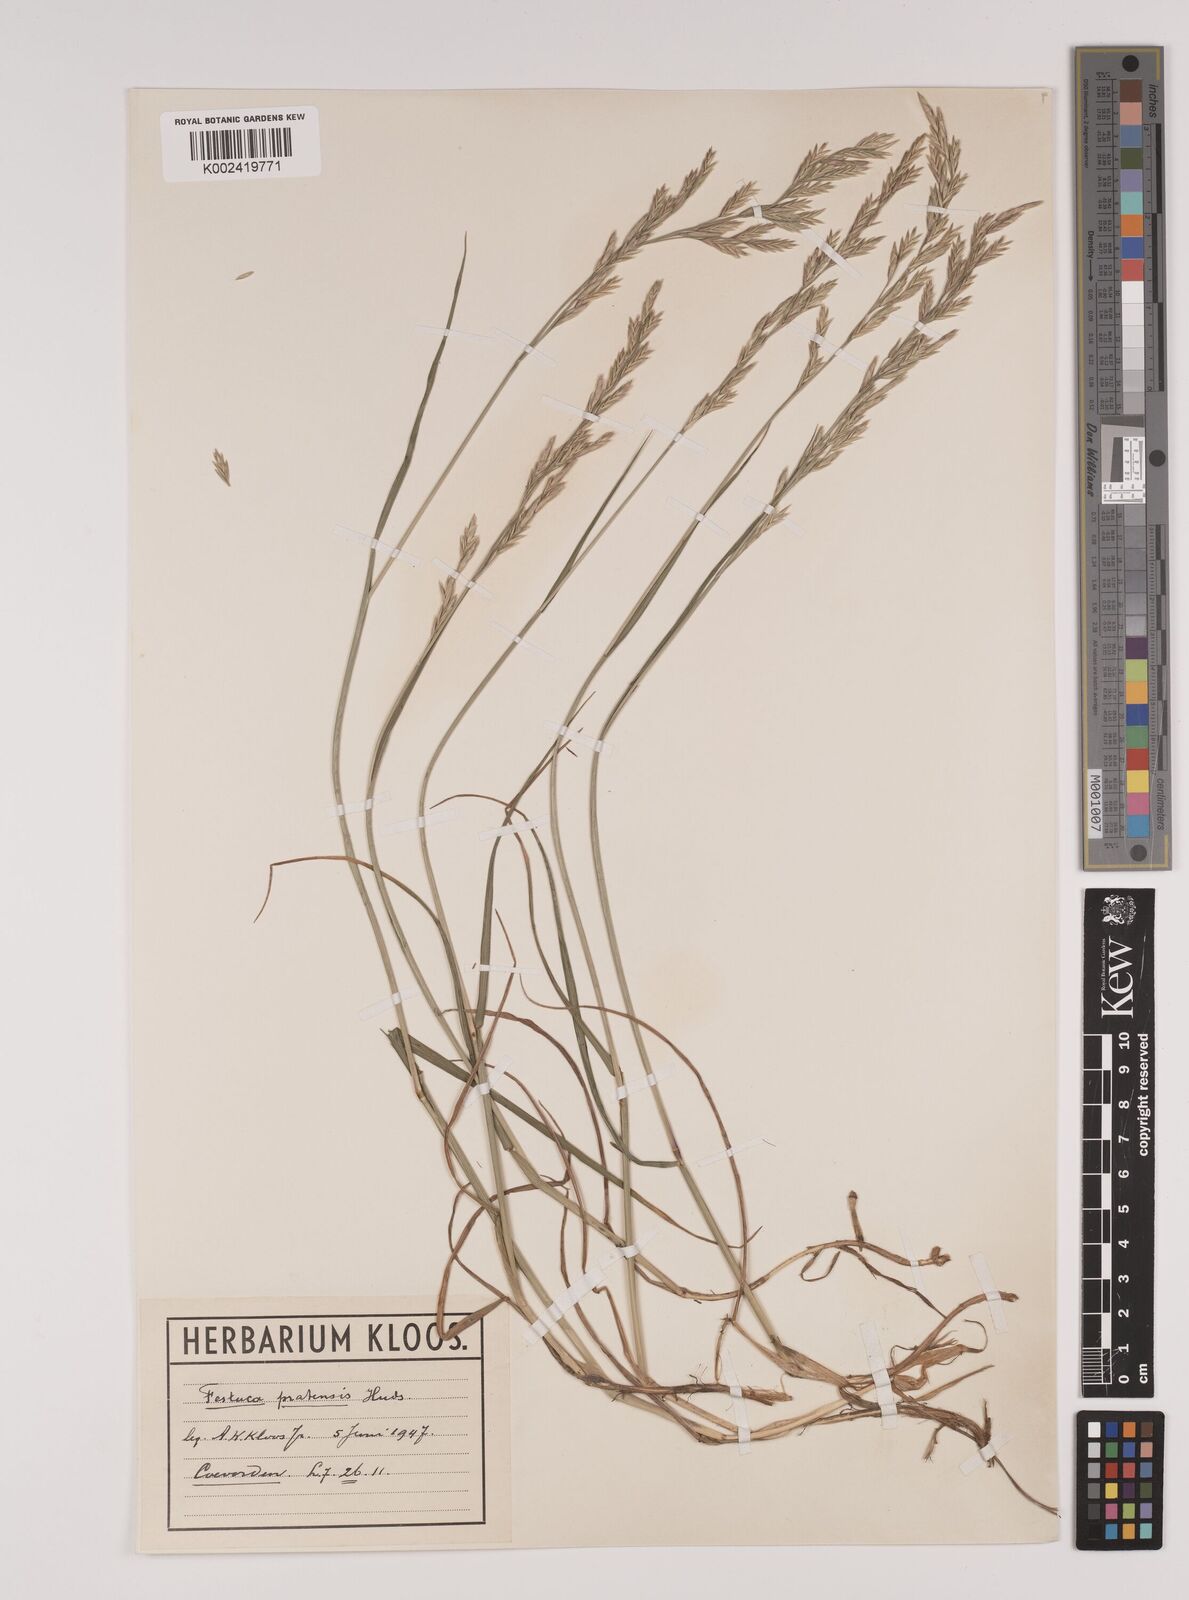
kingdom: Plantae
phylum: Tracheophyta
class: Liliopsida
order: Poales
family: Poaceae
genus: Lolium
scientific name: Lolium pratense
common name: Dover grass
